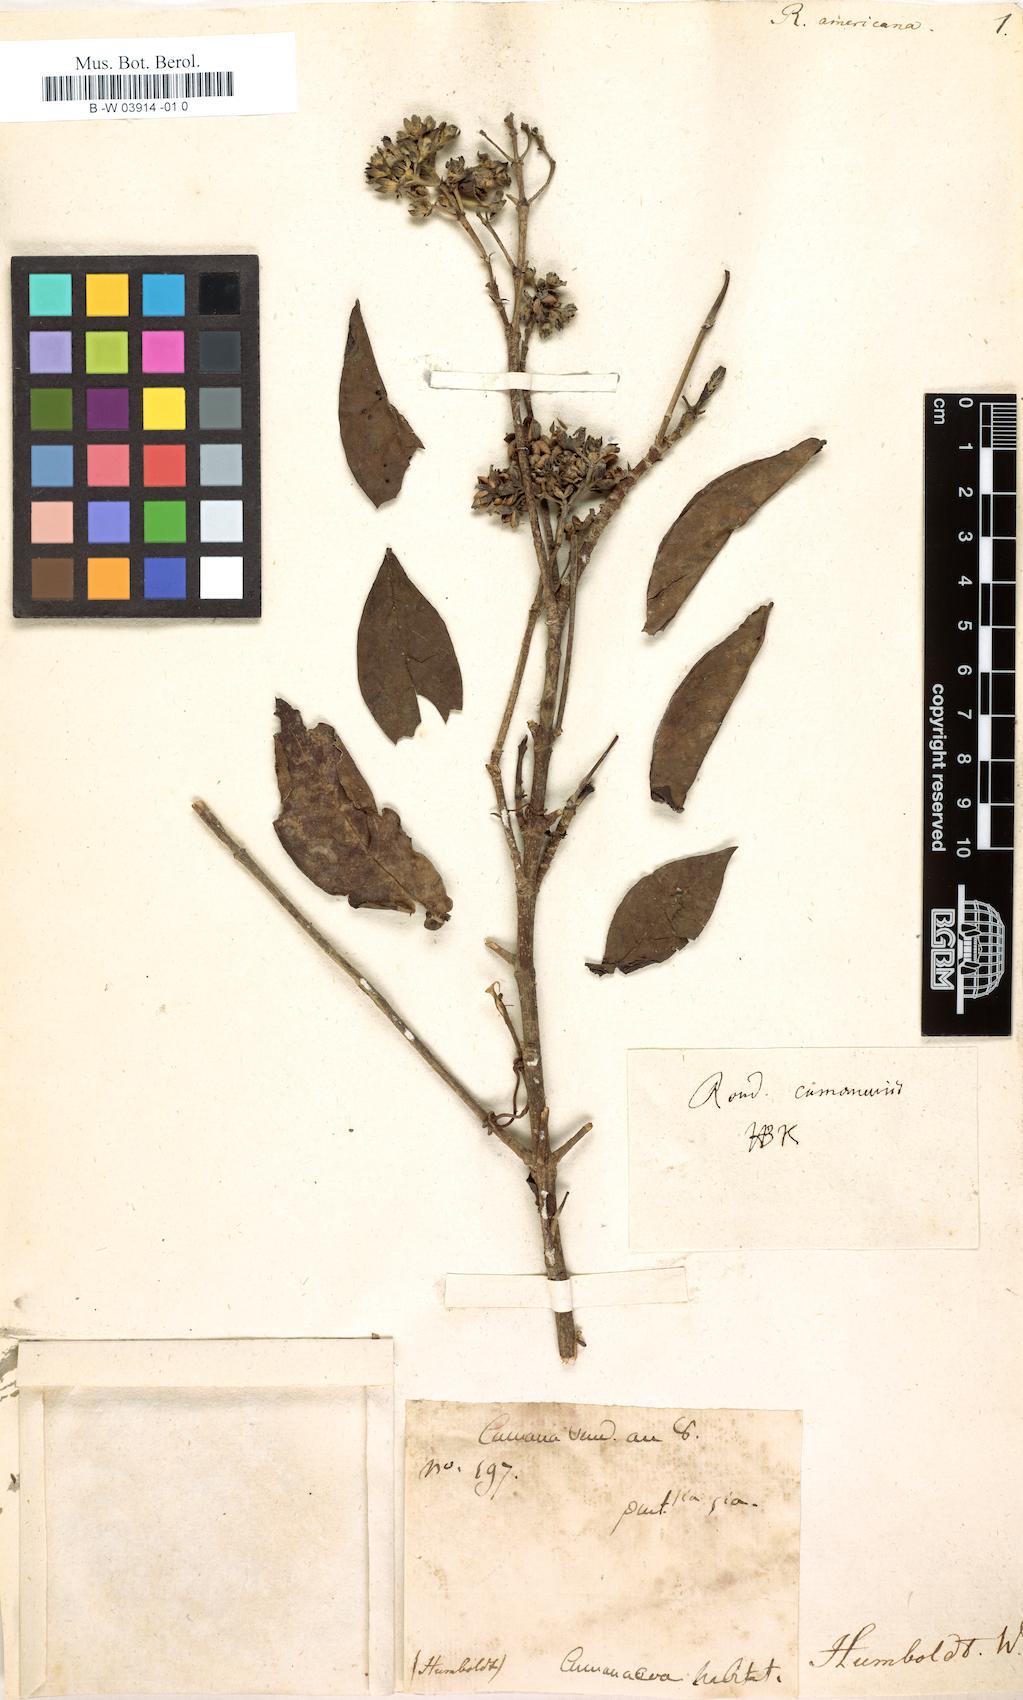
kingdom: Plantae
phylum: Tracheophyta
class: Magnoliopsida
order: Gentianales
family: Rubiaceae
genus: Rondeletia
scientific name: Rondeletia americana
